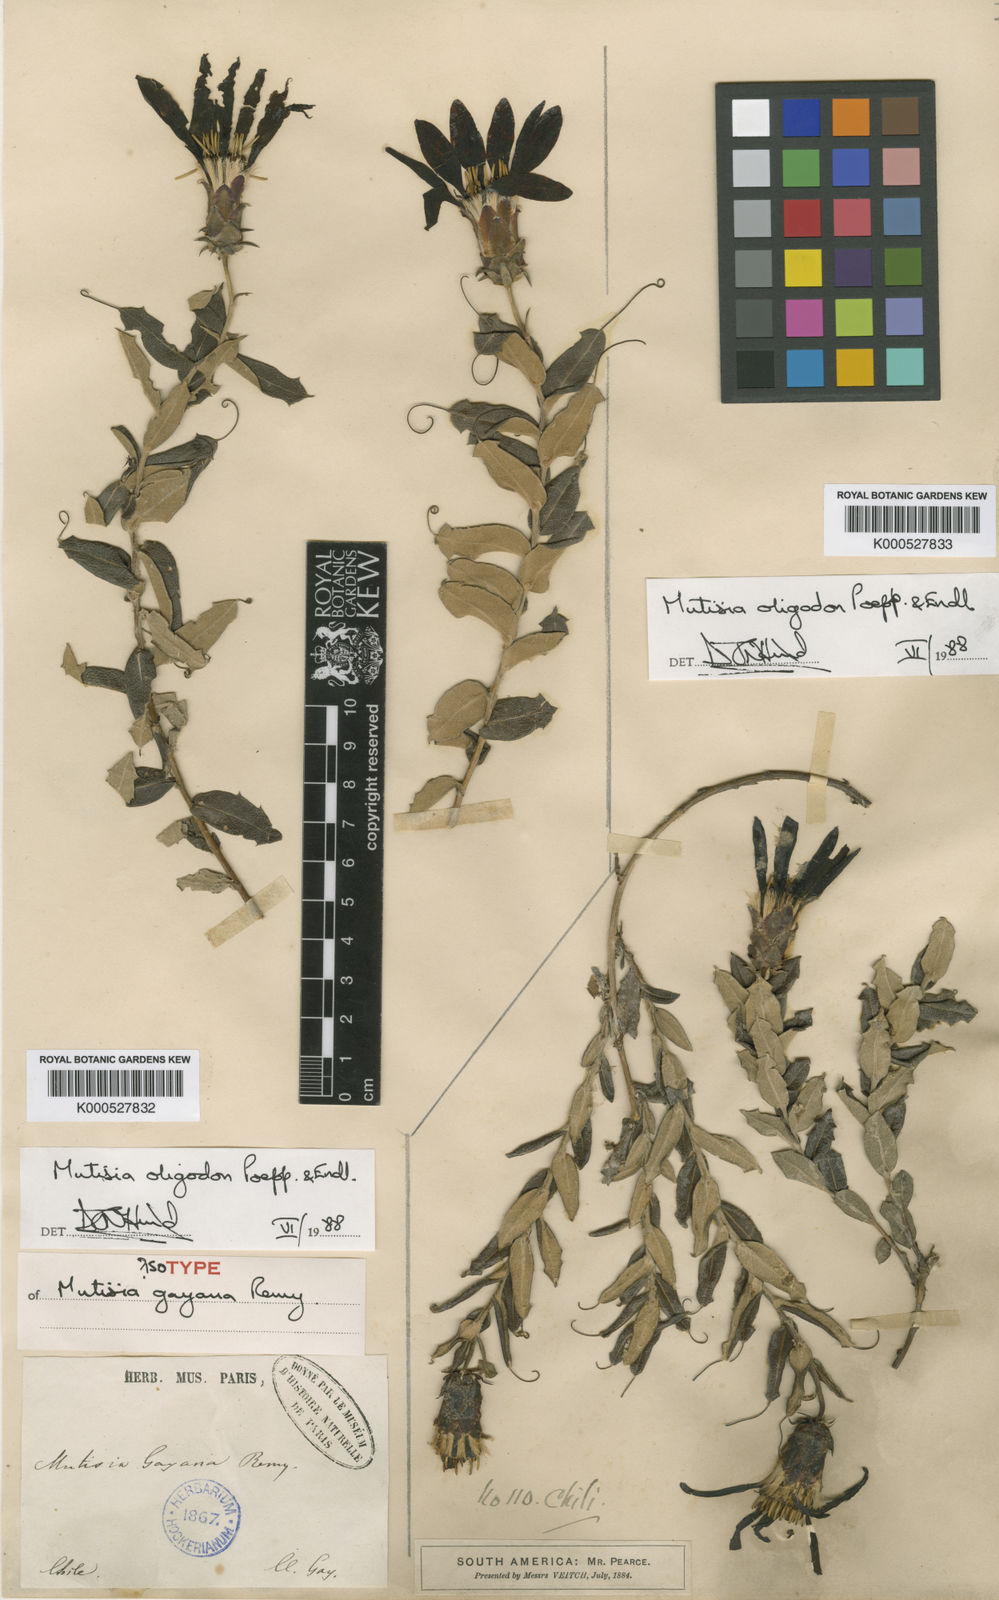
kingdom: Plantae
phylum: Tracheophyta
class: Magnoliopsida
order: Asterales
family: Asteraceae
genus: Mutisia
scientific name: Mutisia oligodon
